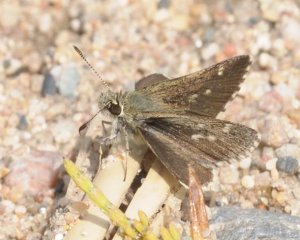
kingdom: Animalia
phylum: Arthropoda
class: Insecta
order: Lepidoptera
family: Hesperiidae
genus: Mastor
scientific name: Mastor hegon
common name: Pepper and Salt Skipper
